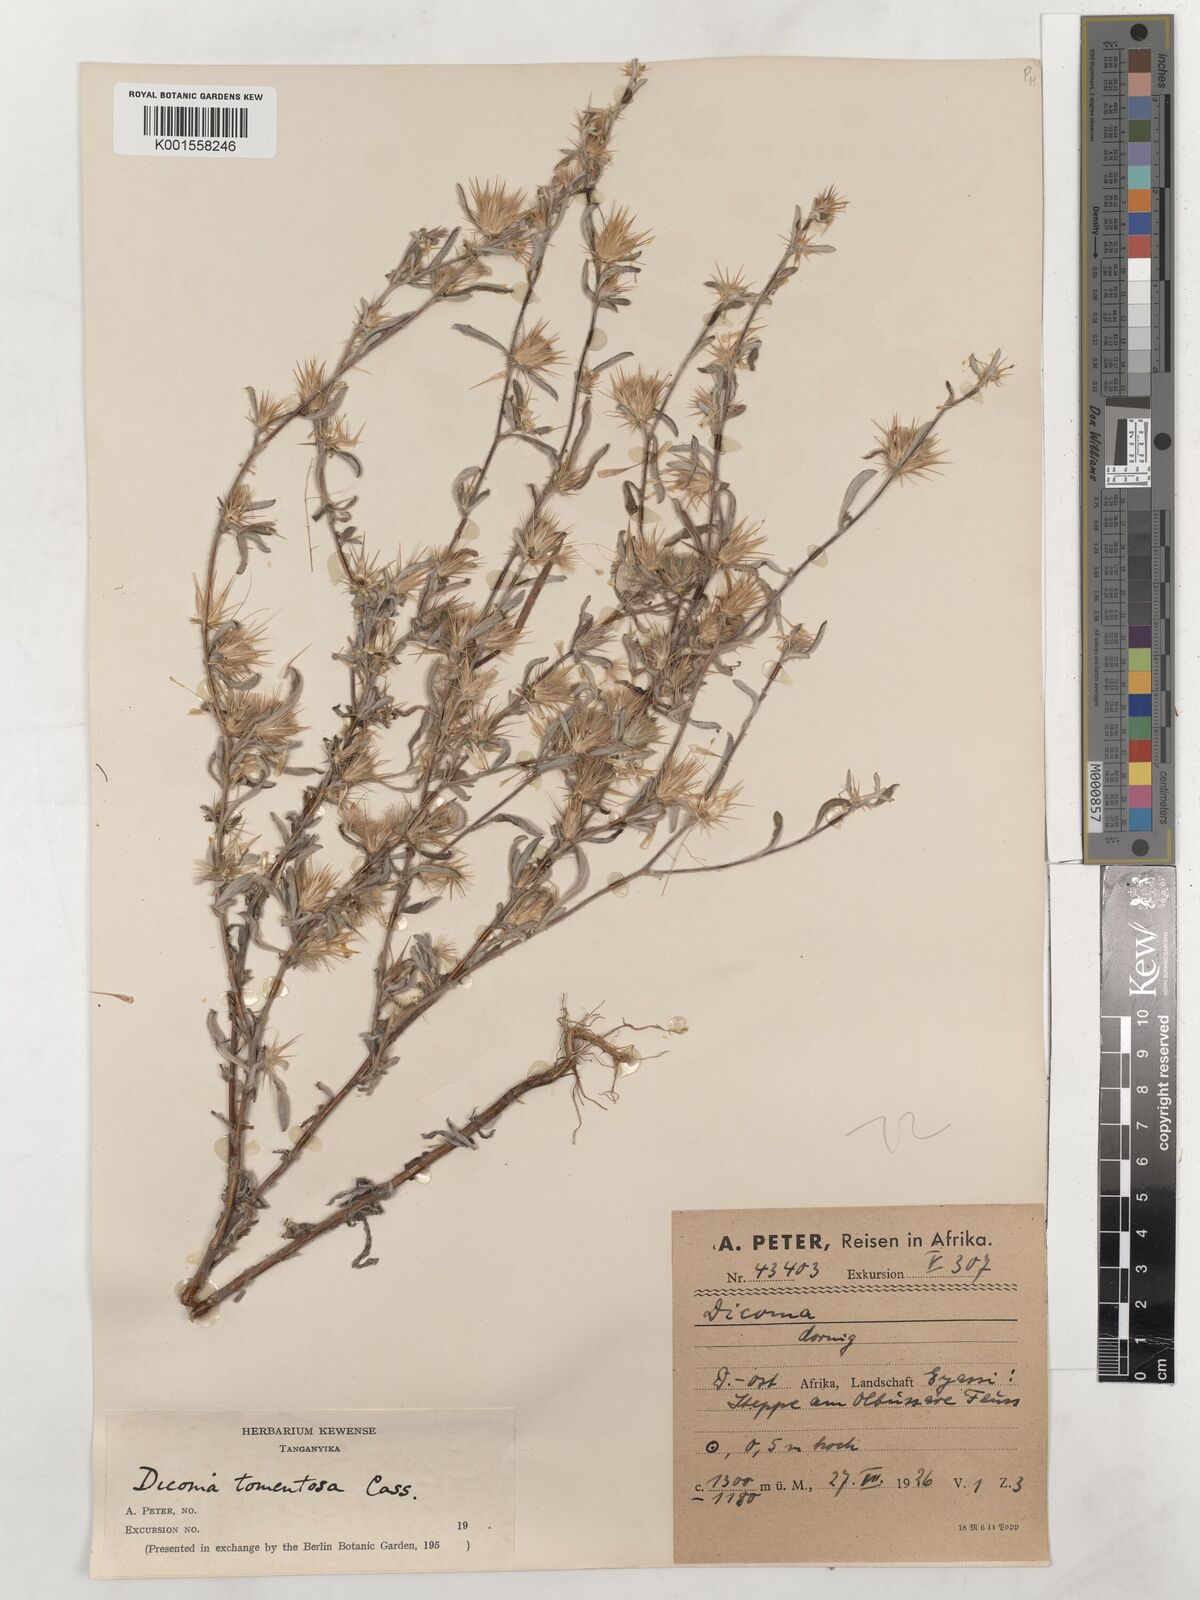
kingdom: Plantae
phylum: Tracheophyta
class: Magnoliopsida
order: Asterales
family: Asteraceae
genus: Dicoma
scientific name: Dicoma tomentosa
